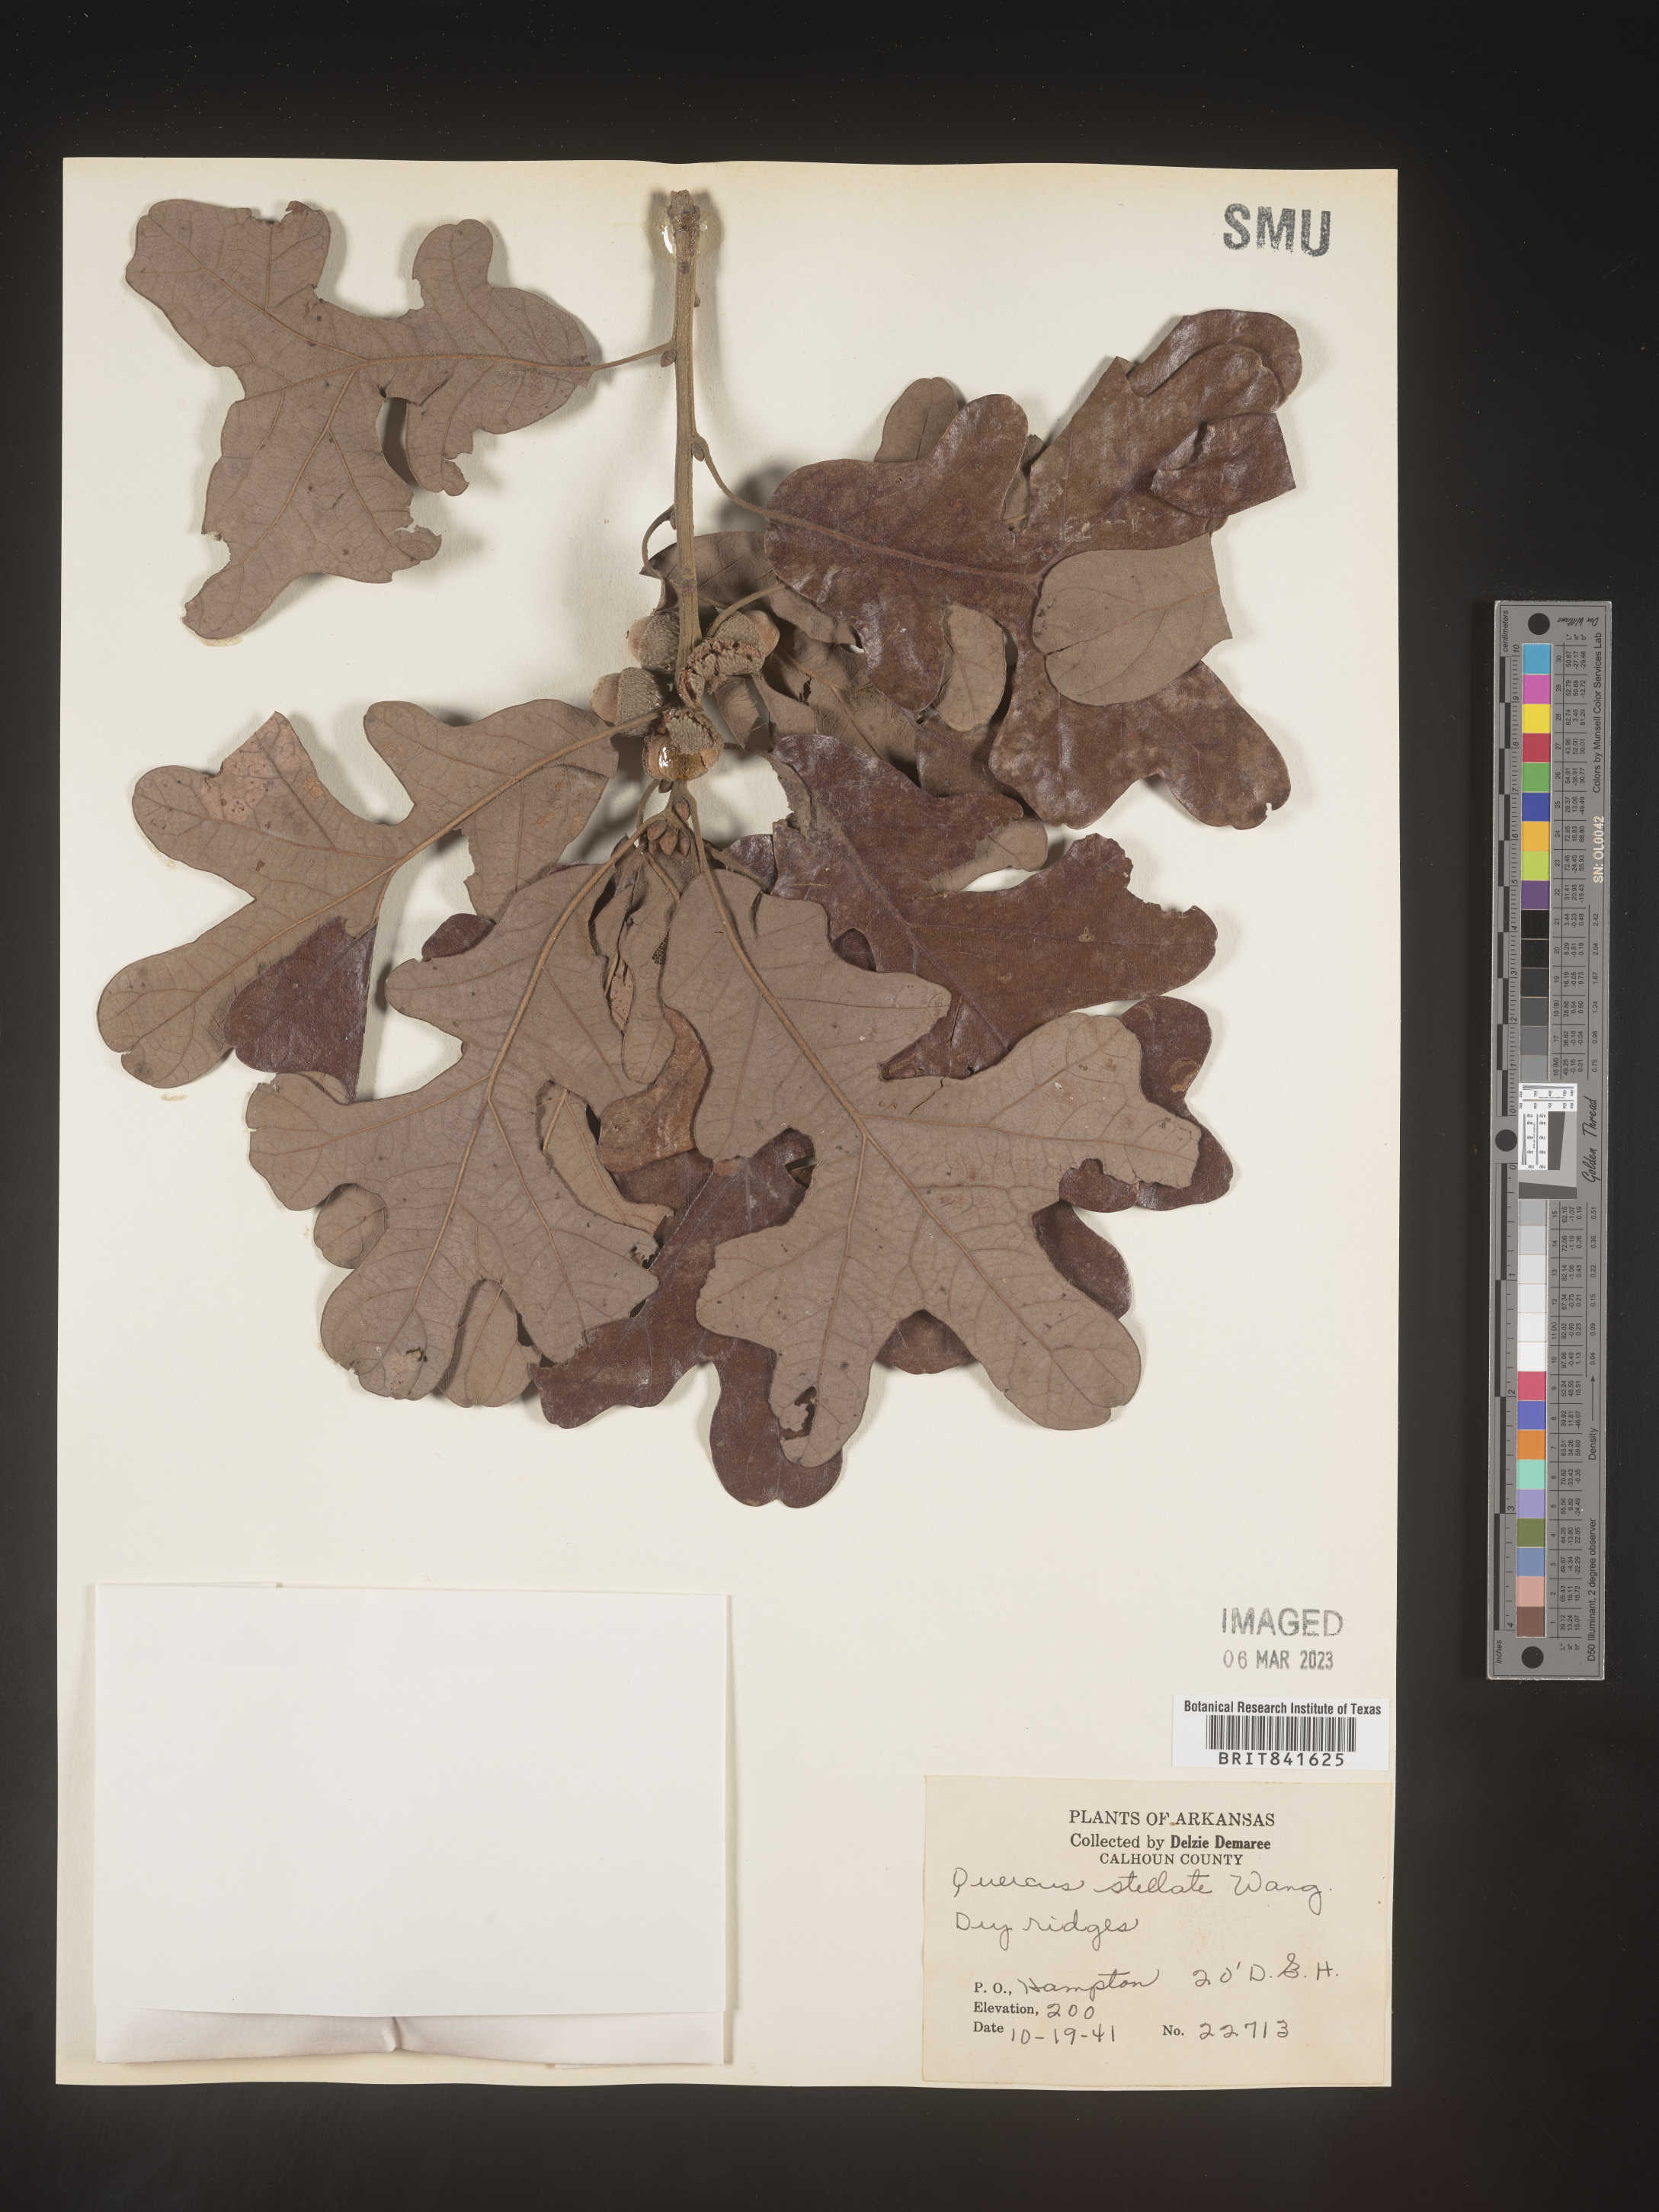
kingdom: Plantae
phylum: Tracheophyta
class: Magnoliopsida
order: Fagales
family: Fagaceae
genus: Quercus
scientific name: Quercus stellata
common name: Post oak
